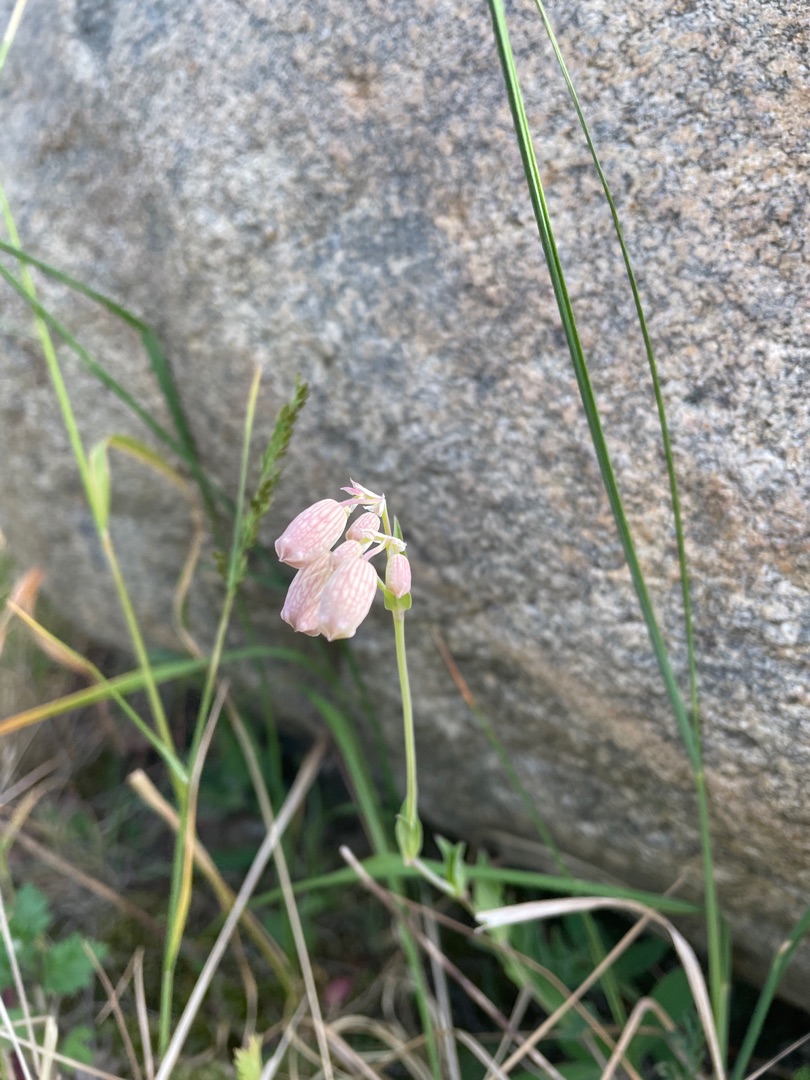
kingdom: Plantae
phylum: Tracheophyta
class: Magnoliopsida
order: Caryophyllales
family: Caryophyllaceae
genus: Silene
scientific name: Silene vulgaris
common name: Blæresmælde
